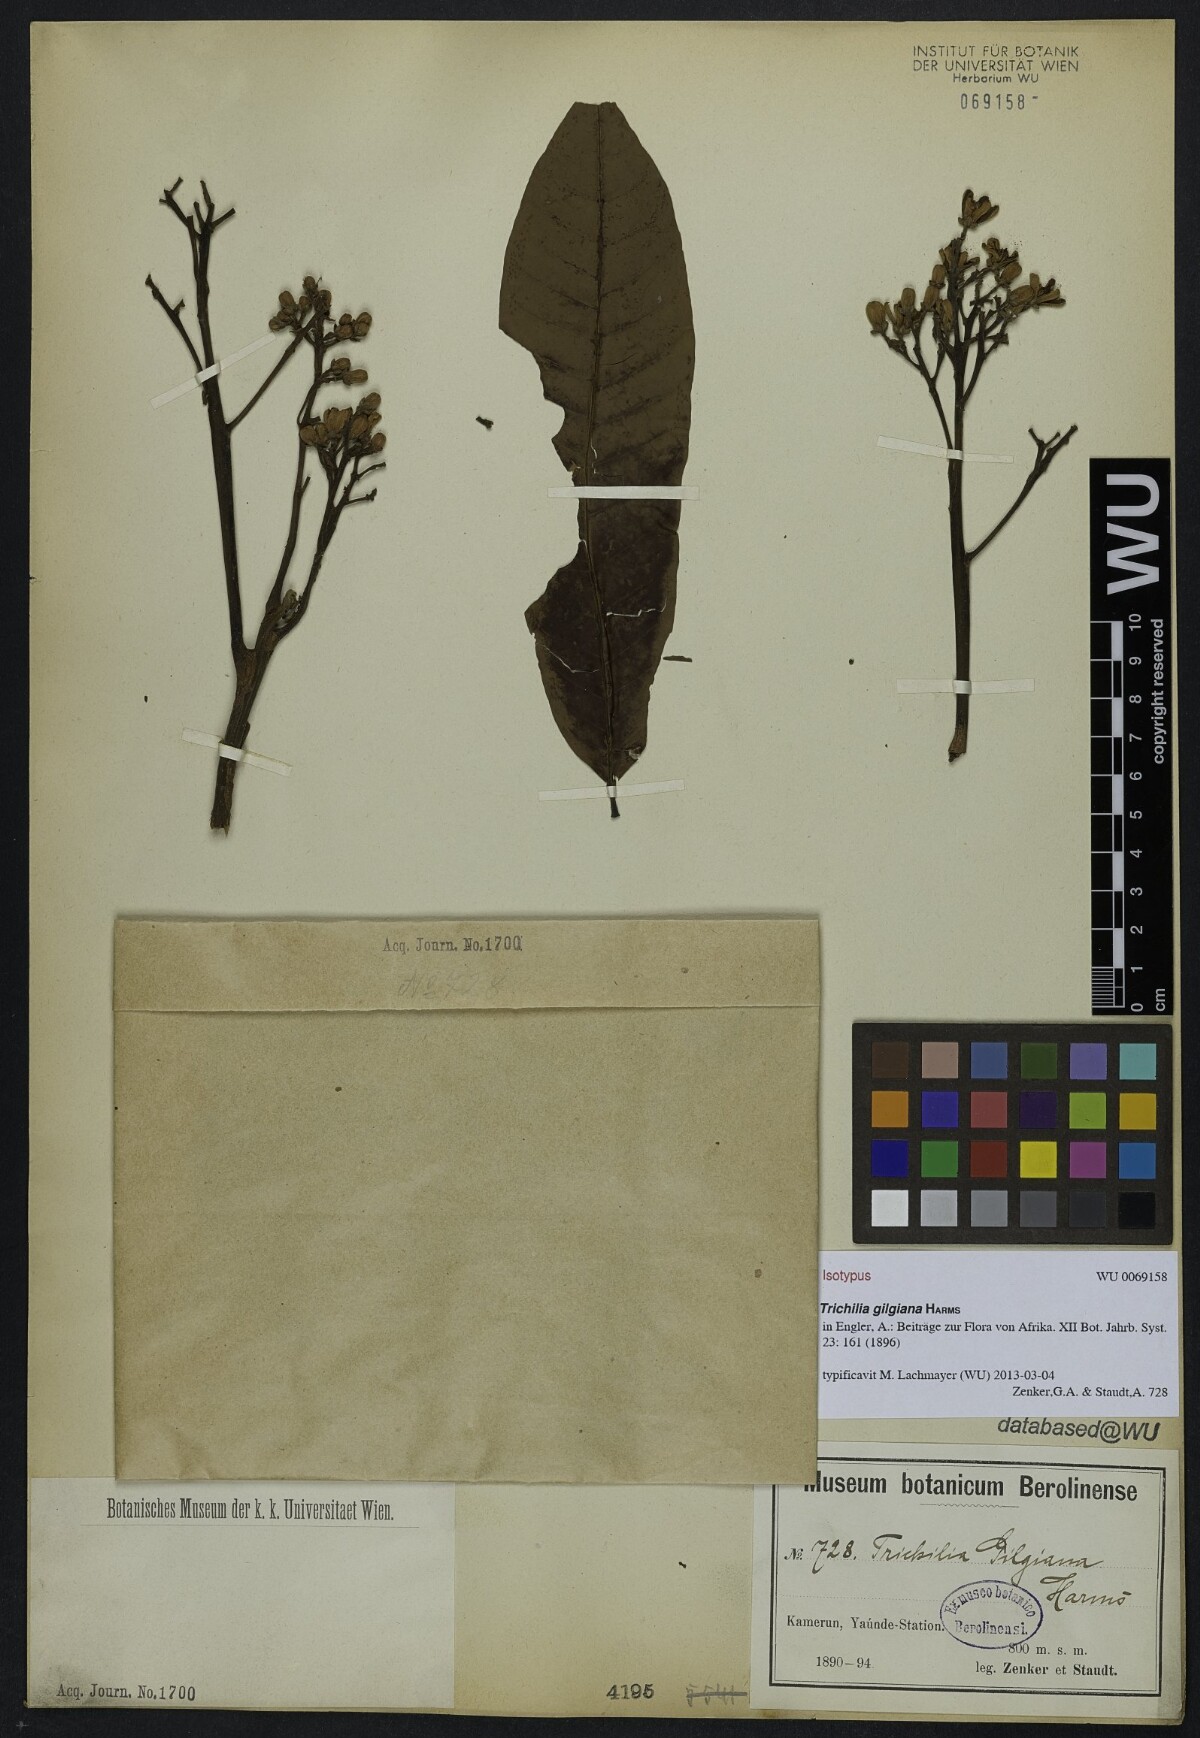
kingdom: Plantae
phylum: Tracheophyta
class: Magnoliopsida
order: Sapindales
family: Meliaceae
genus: Trichilia
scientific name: Trichilia gilgiana
